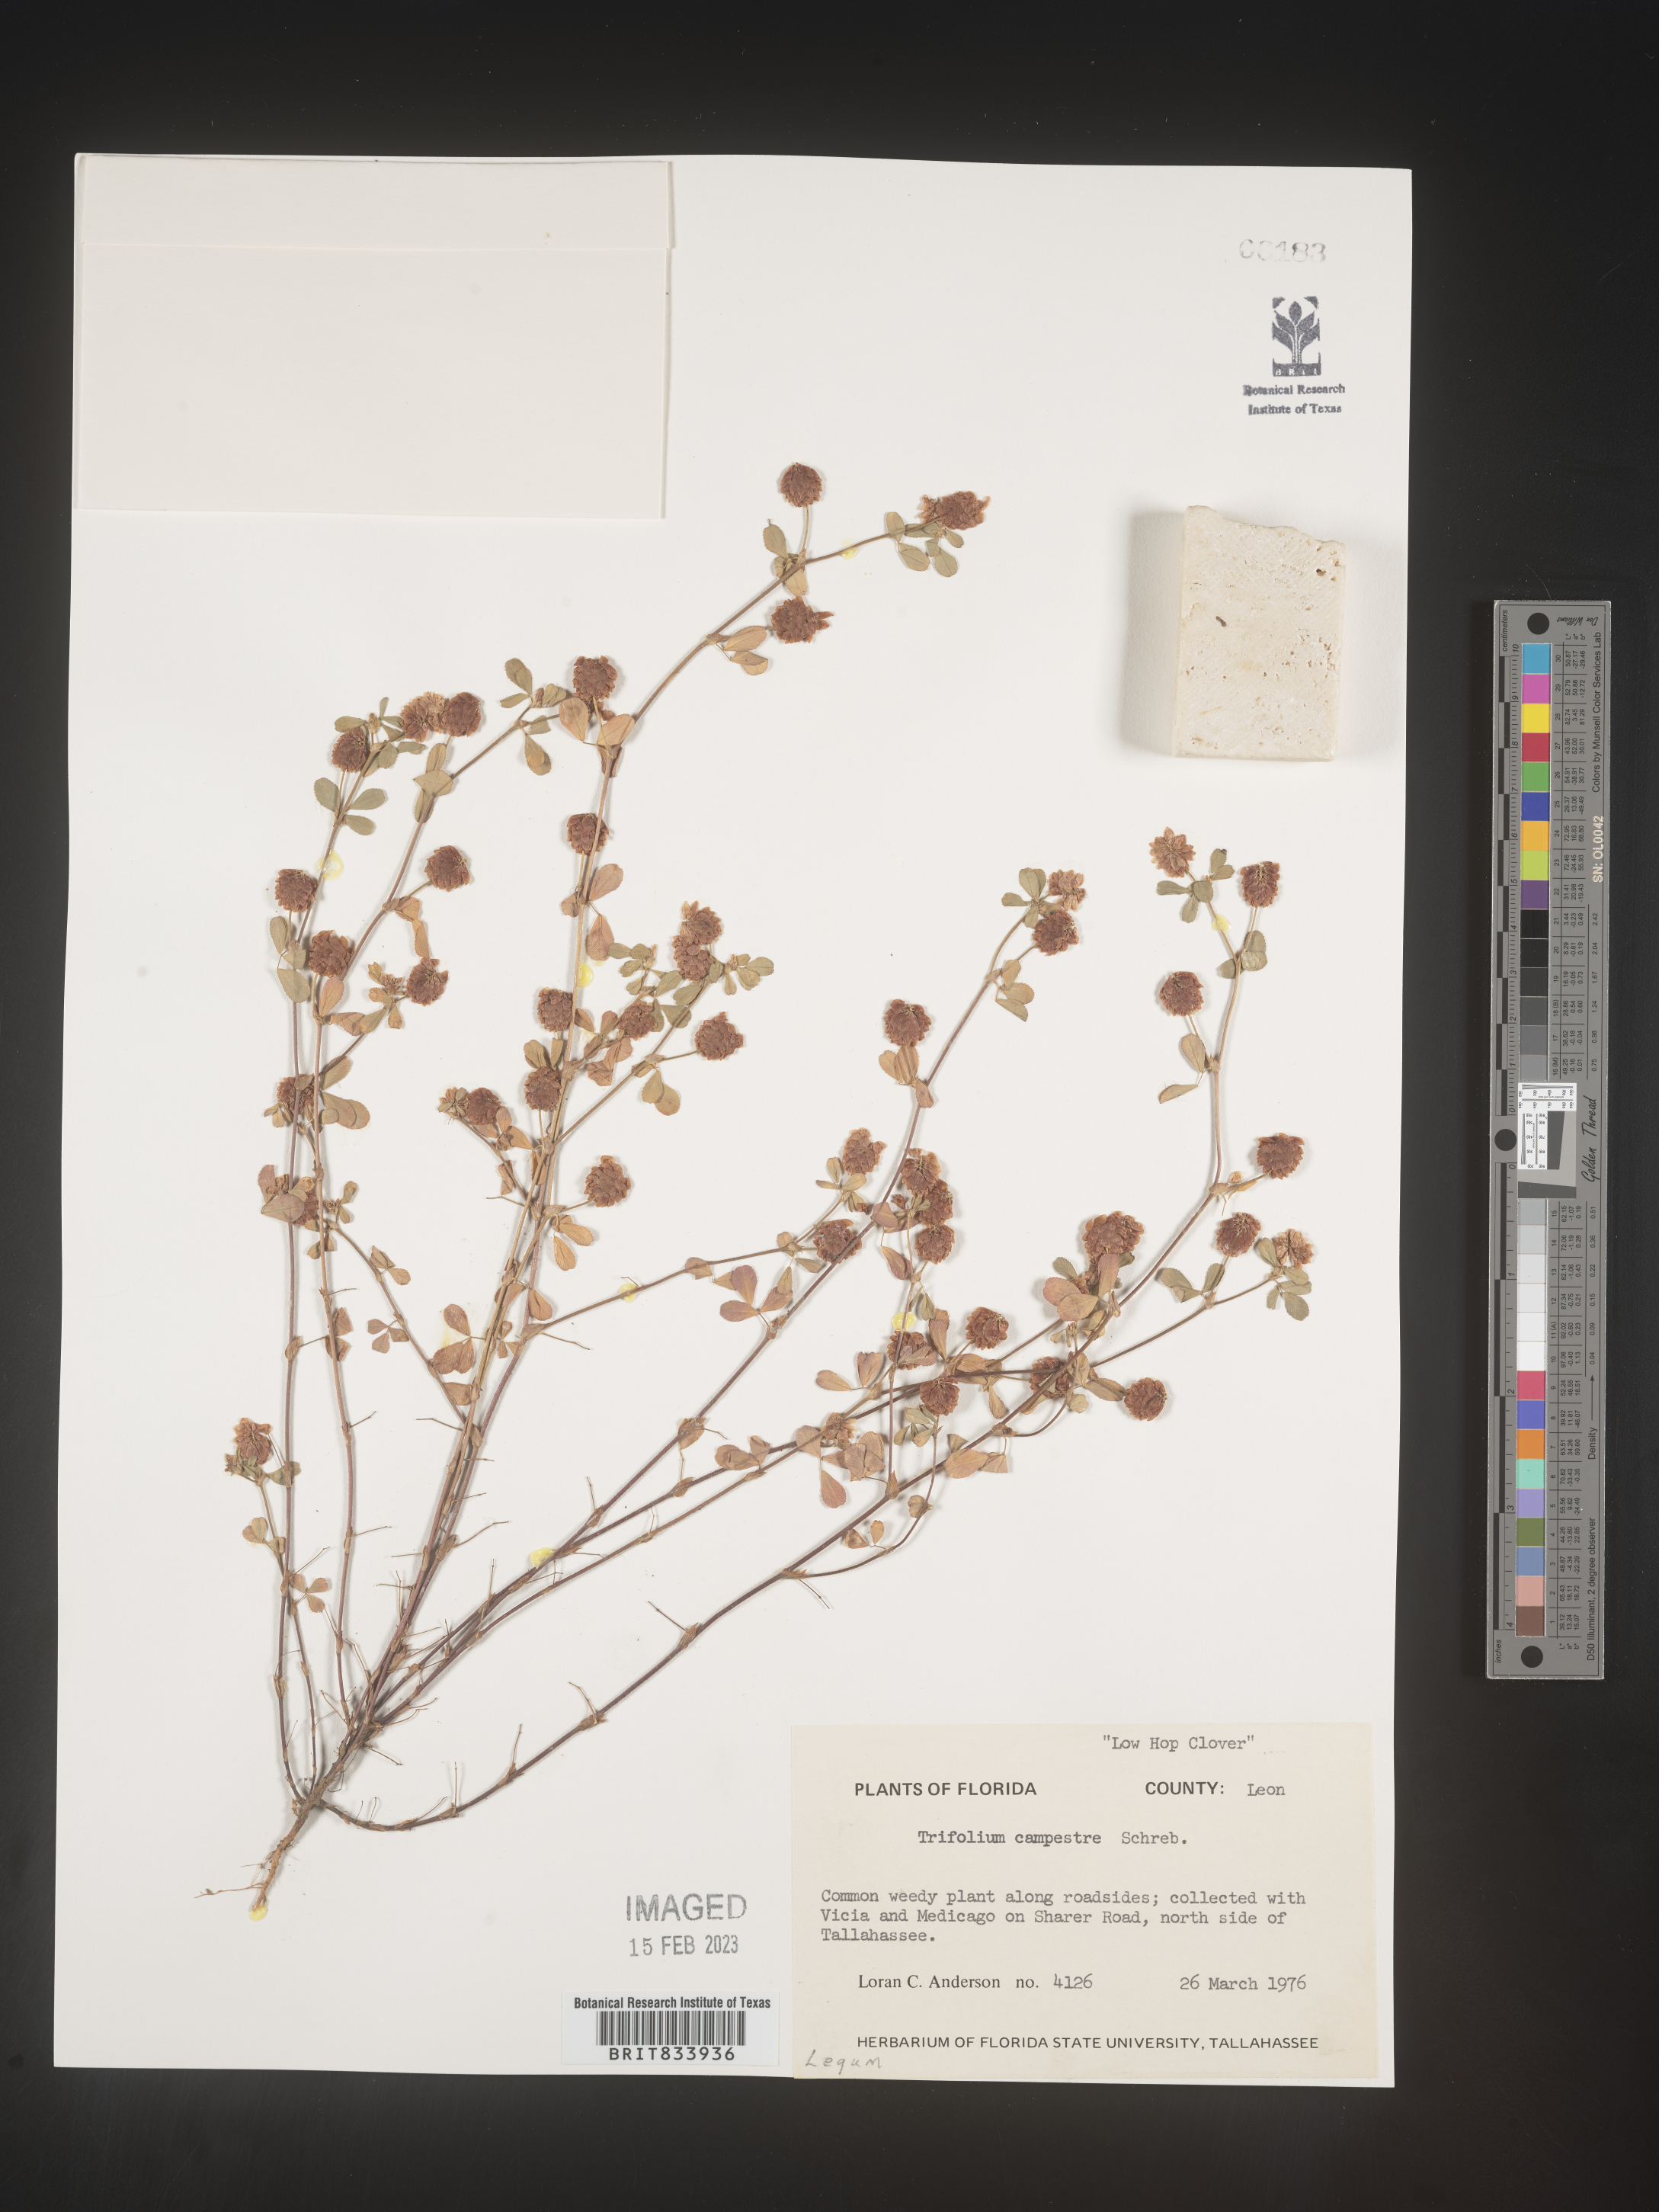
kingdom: Plantae
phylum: Tracheophyta
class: Magnoliopsida
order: Fabales
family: Fabaceae
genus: Trifolium
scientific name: Trifolium campestre
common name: Field clover
